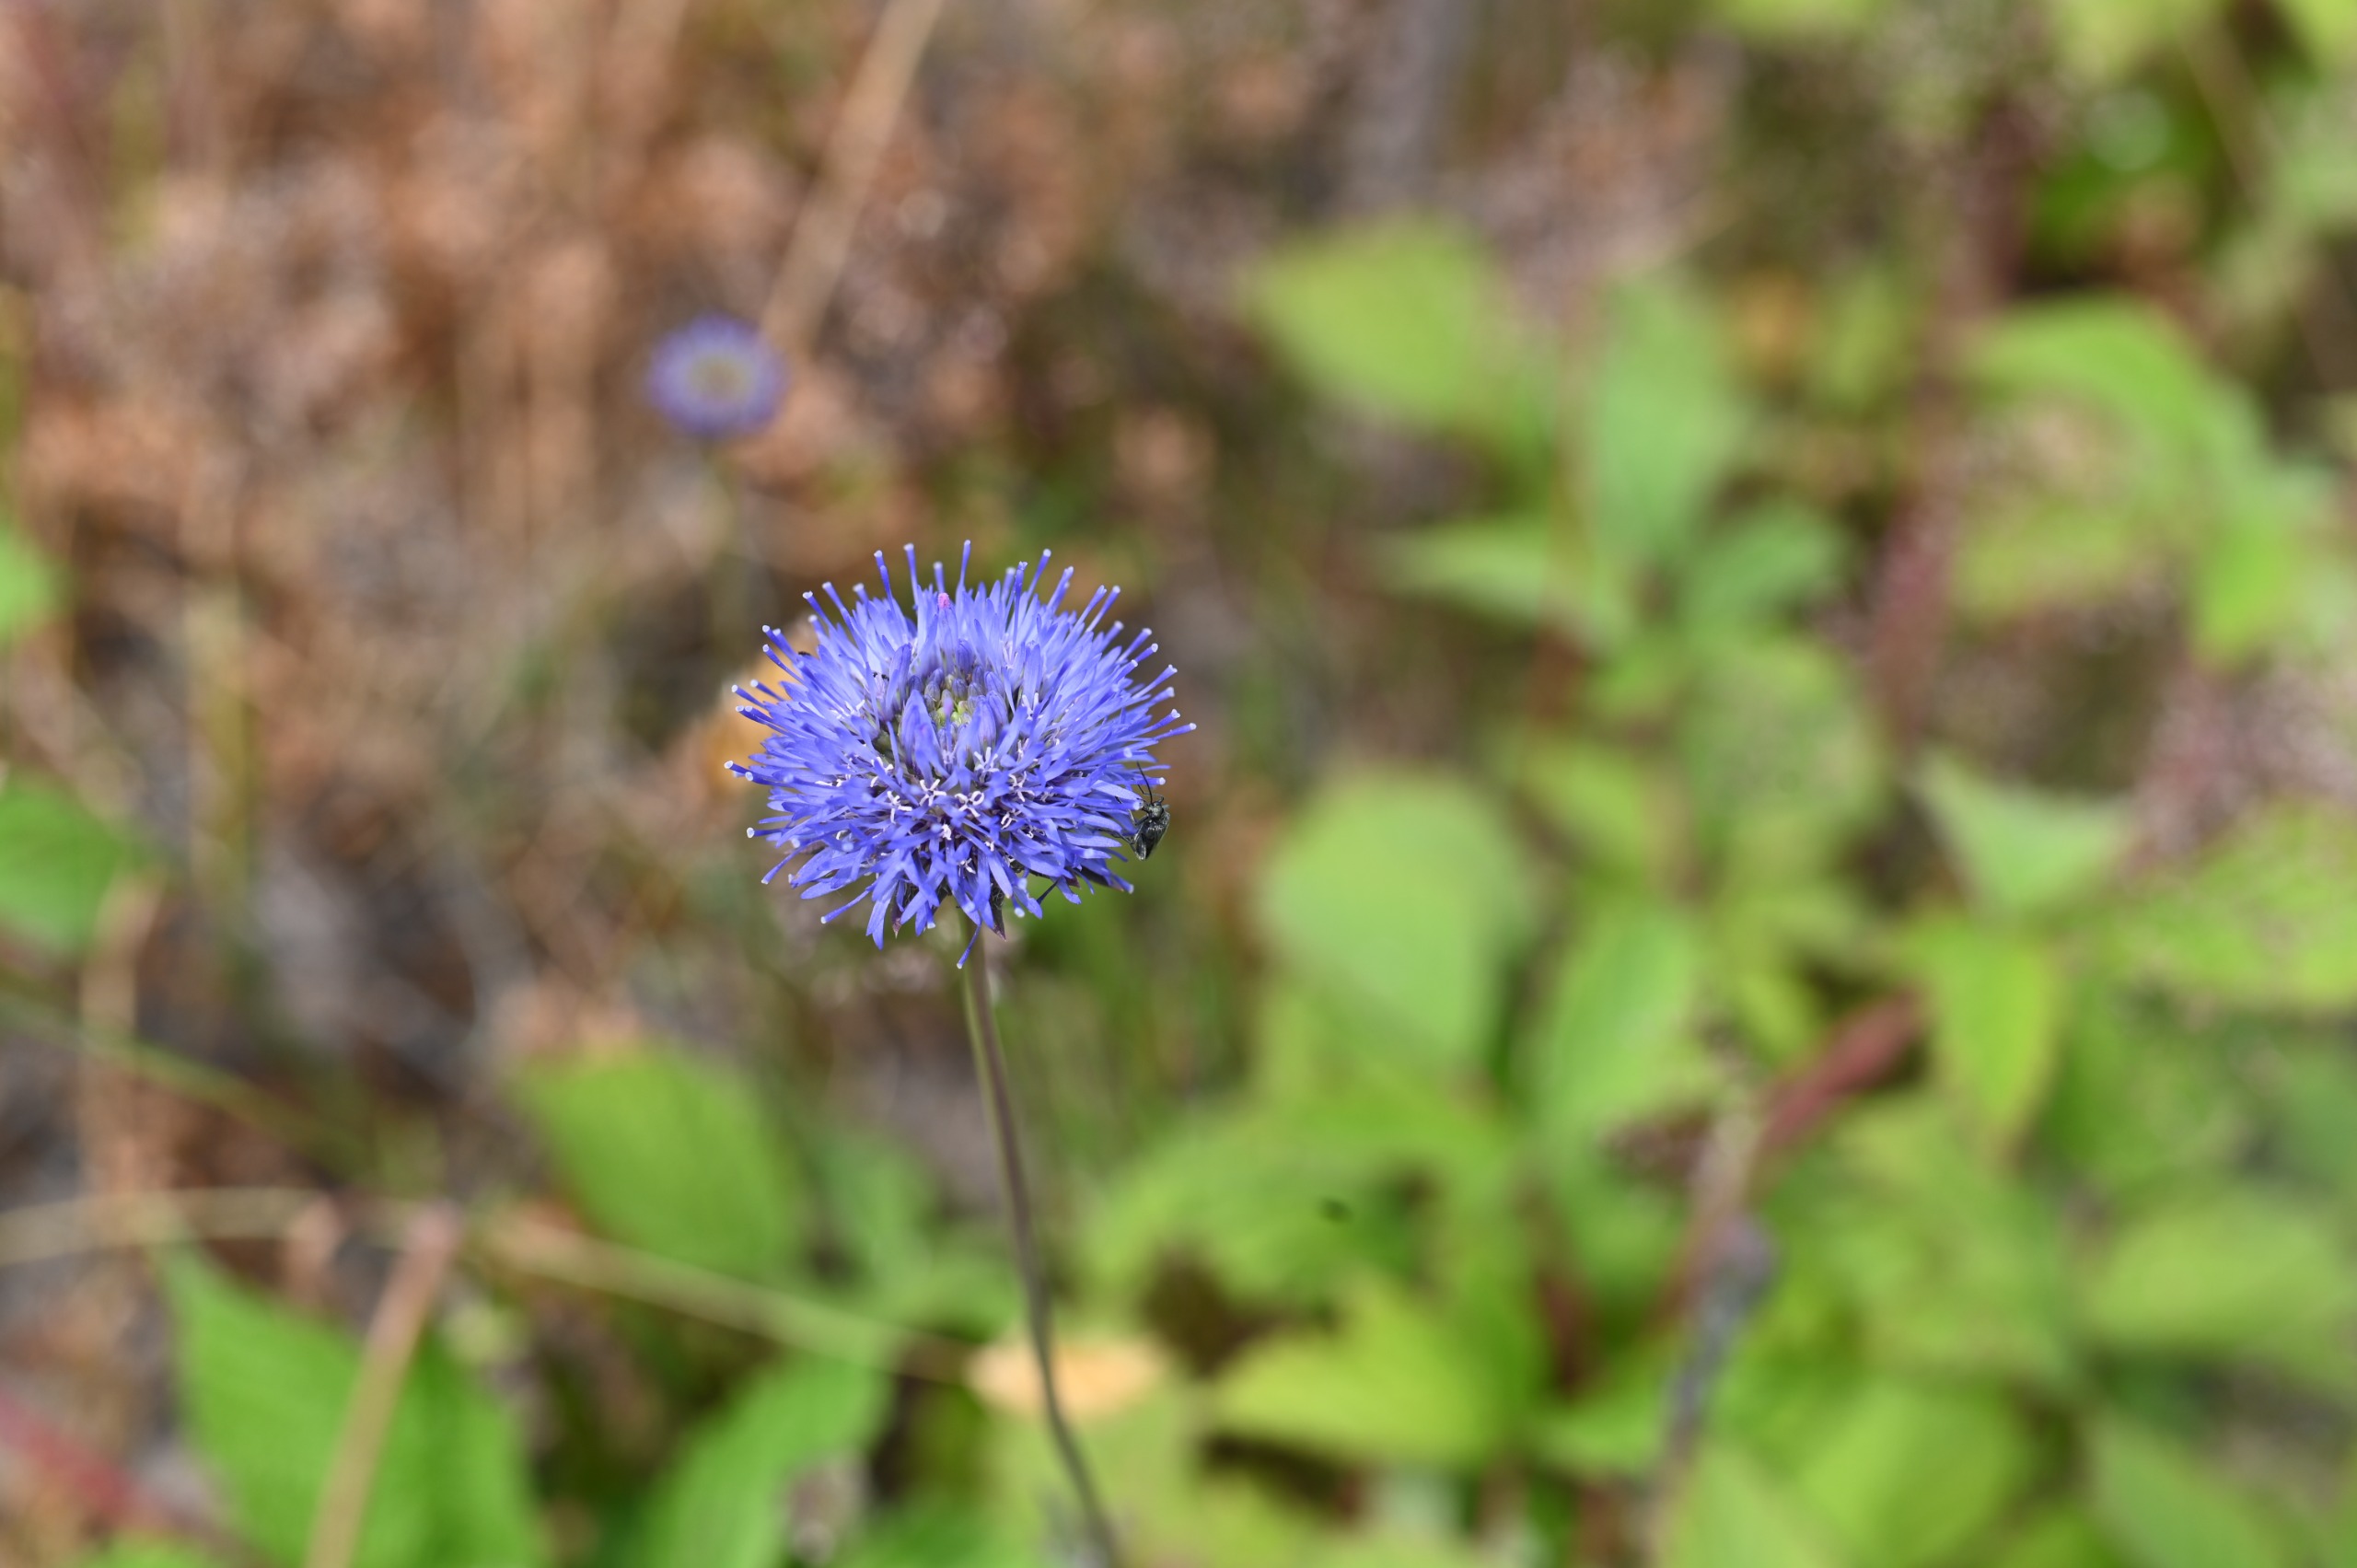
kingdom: Plantae
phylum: Tracheophyta
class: Magnoliopsida
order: Asterales
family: Campanulaceae
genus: Jasione
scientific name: Jasione montana
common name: Blåmunke
